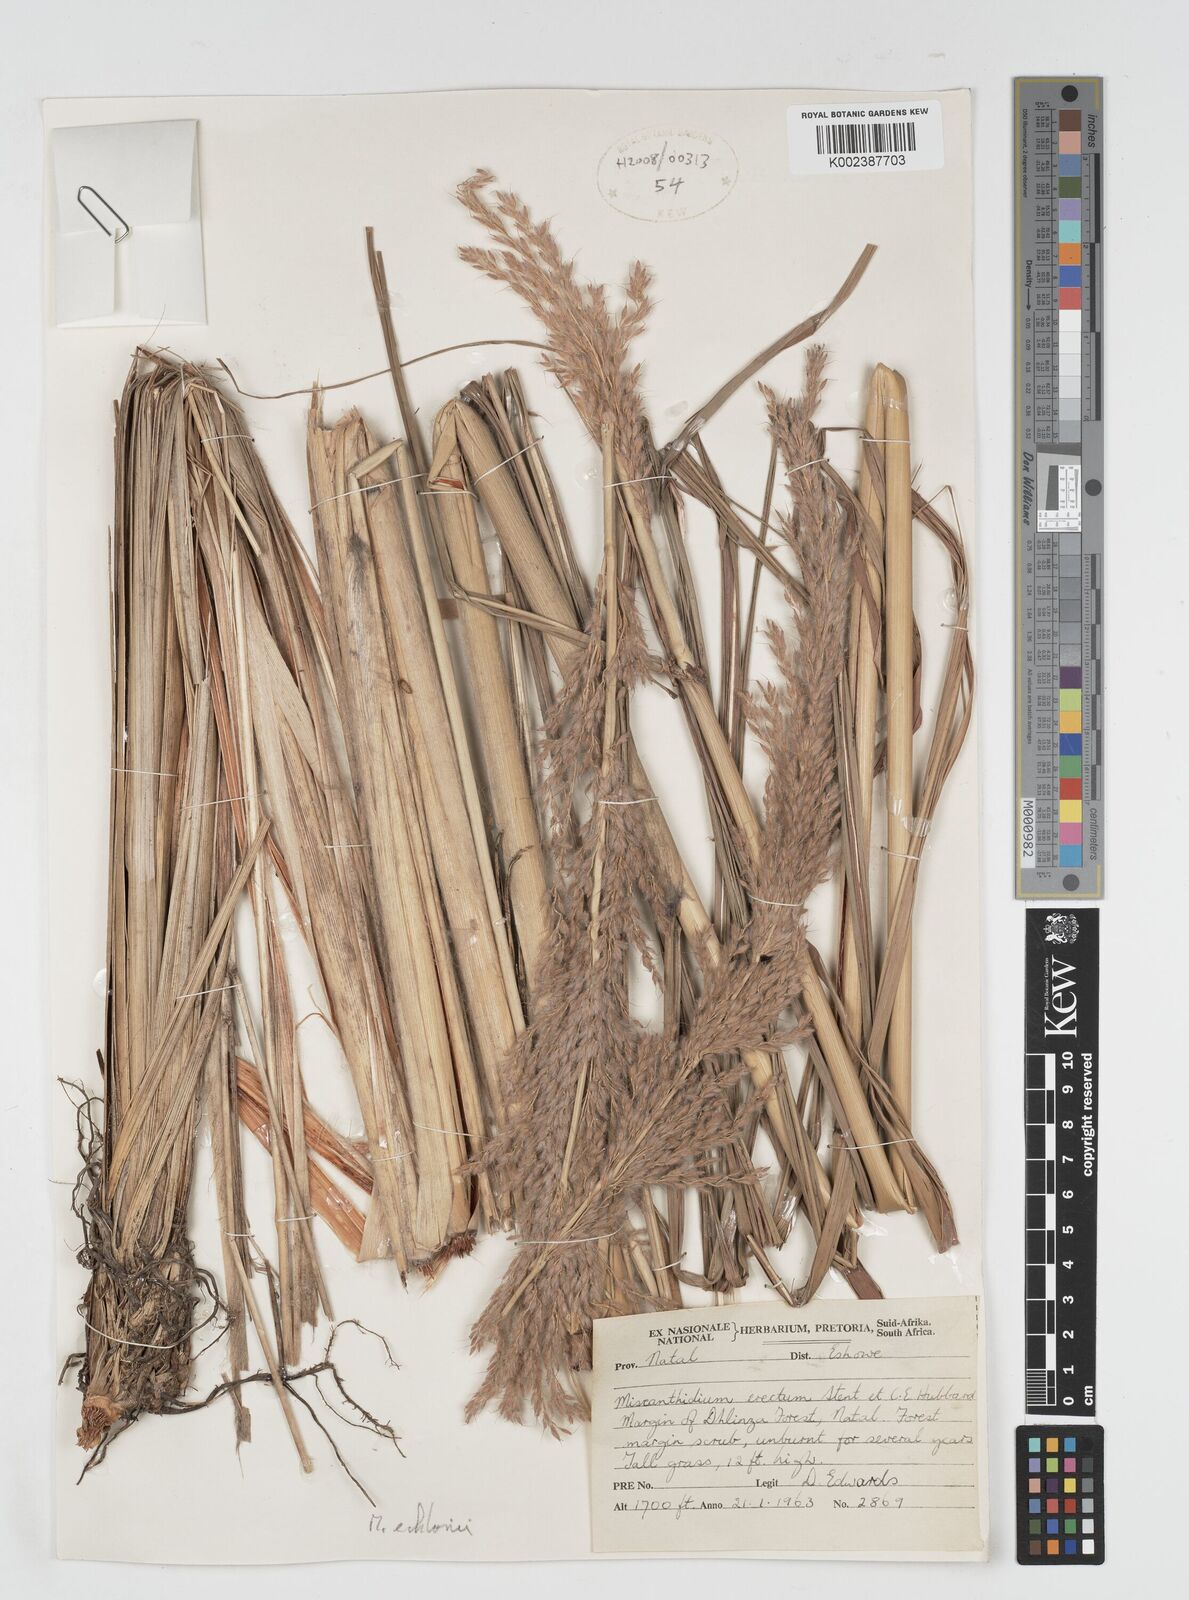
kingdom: Plantae
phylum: Tracheophyta
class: Liliopsida
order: Poales
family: Poaceae
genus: Miscanthus
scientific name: Miscanthus ecklonii
